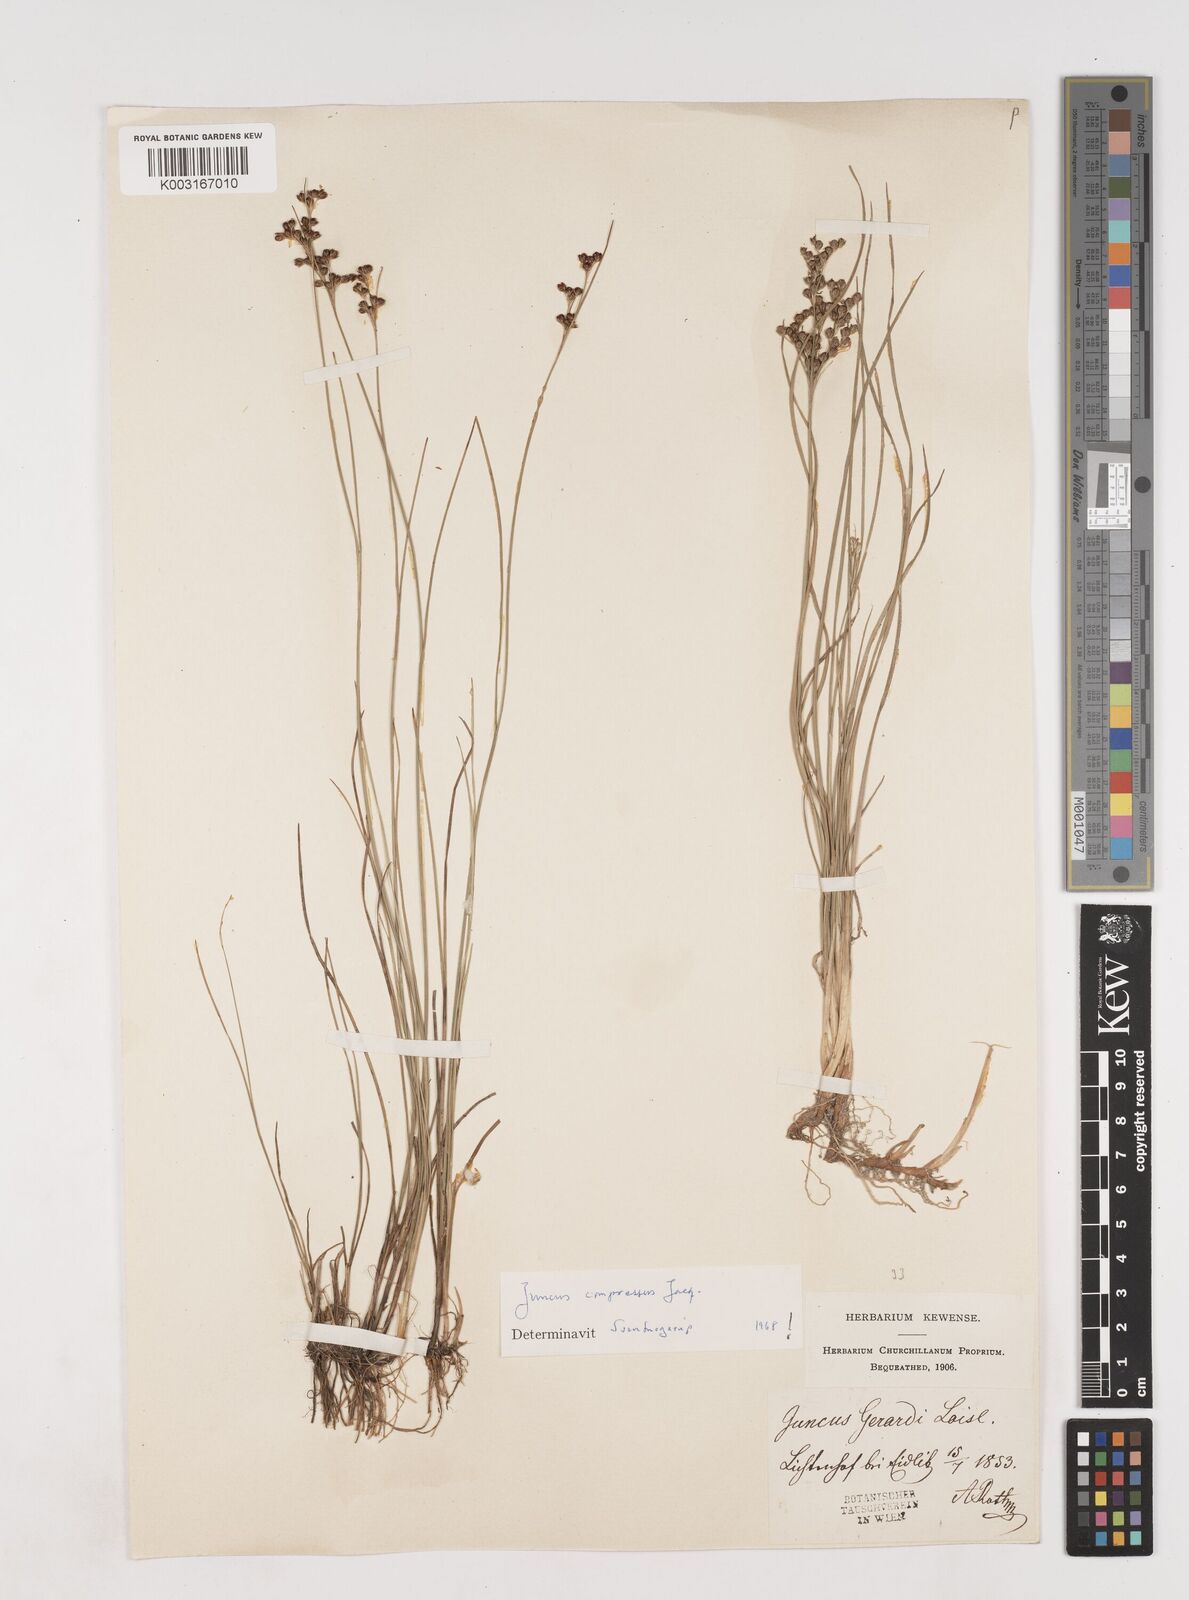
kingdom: Plantae
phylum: Tracheophyta
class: Liliopsida
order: Poales
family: Juncaceae
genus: Juncus
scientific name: Juncus gerardi
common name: Saltmarsh rush
